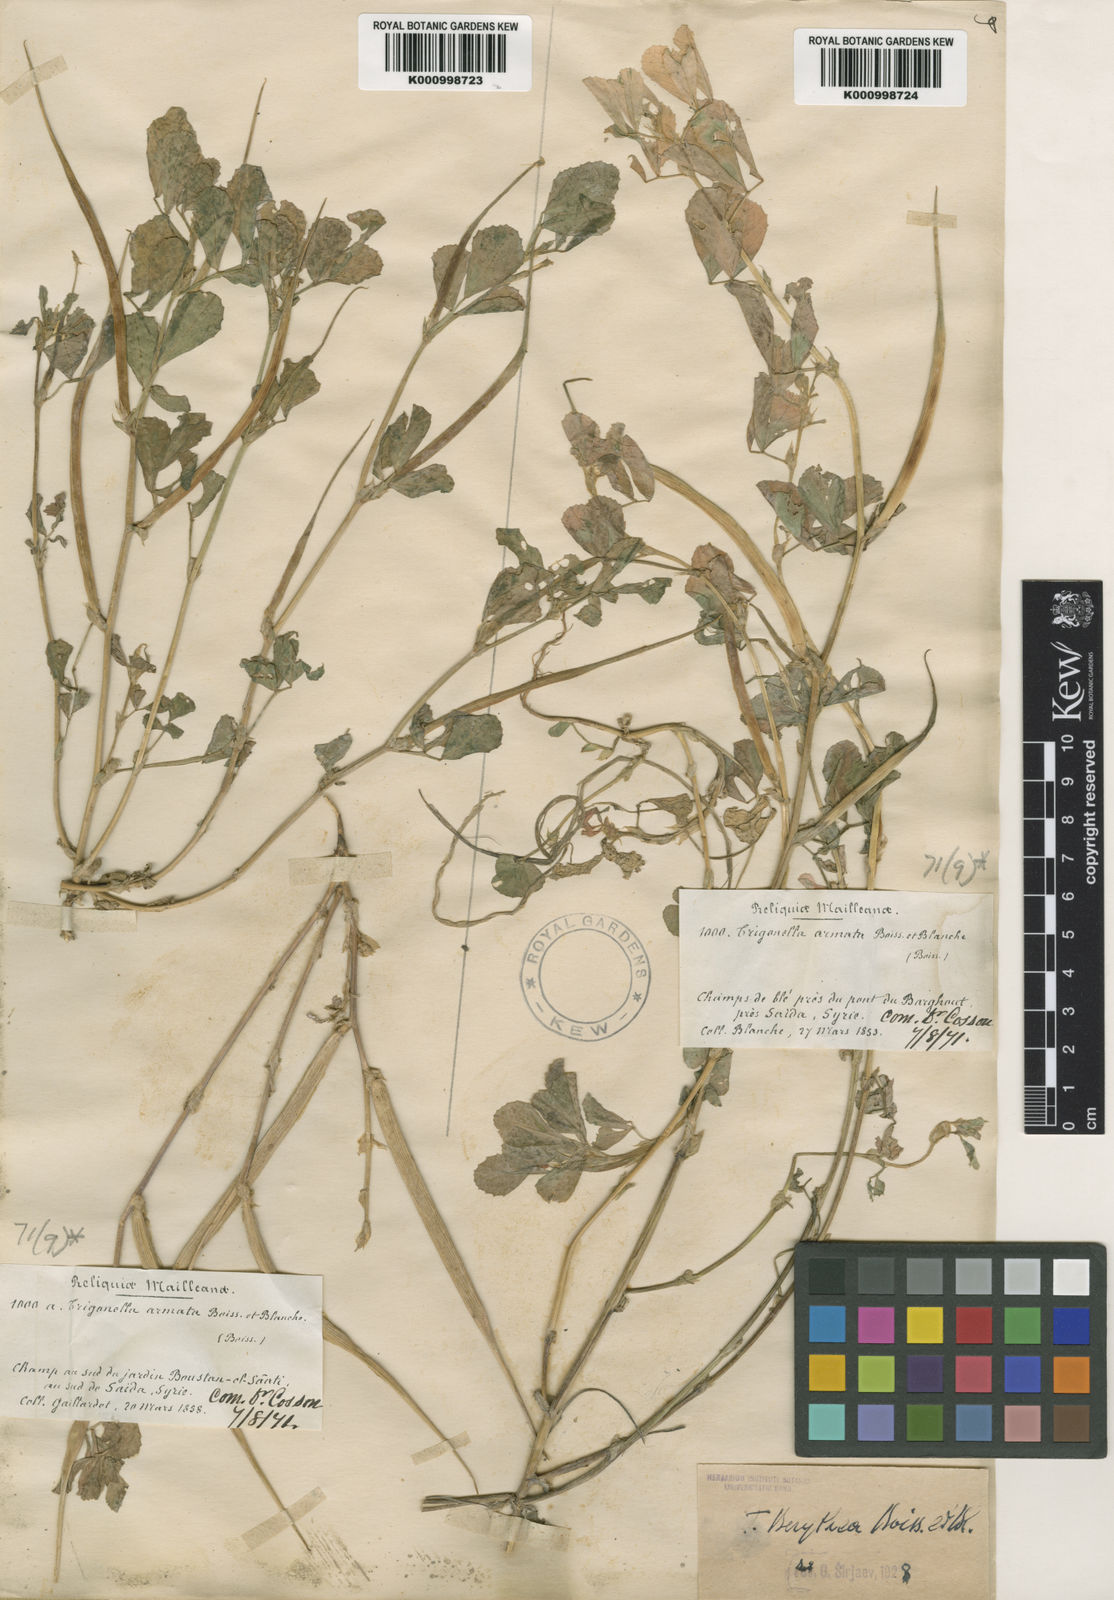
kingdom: Plantae
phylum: Tracheophyta
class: Magnoliopsida
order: Fabales
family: Fabaceae
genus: Trigonella
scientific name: Trigonella berythea
